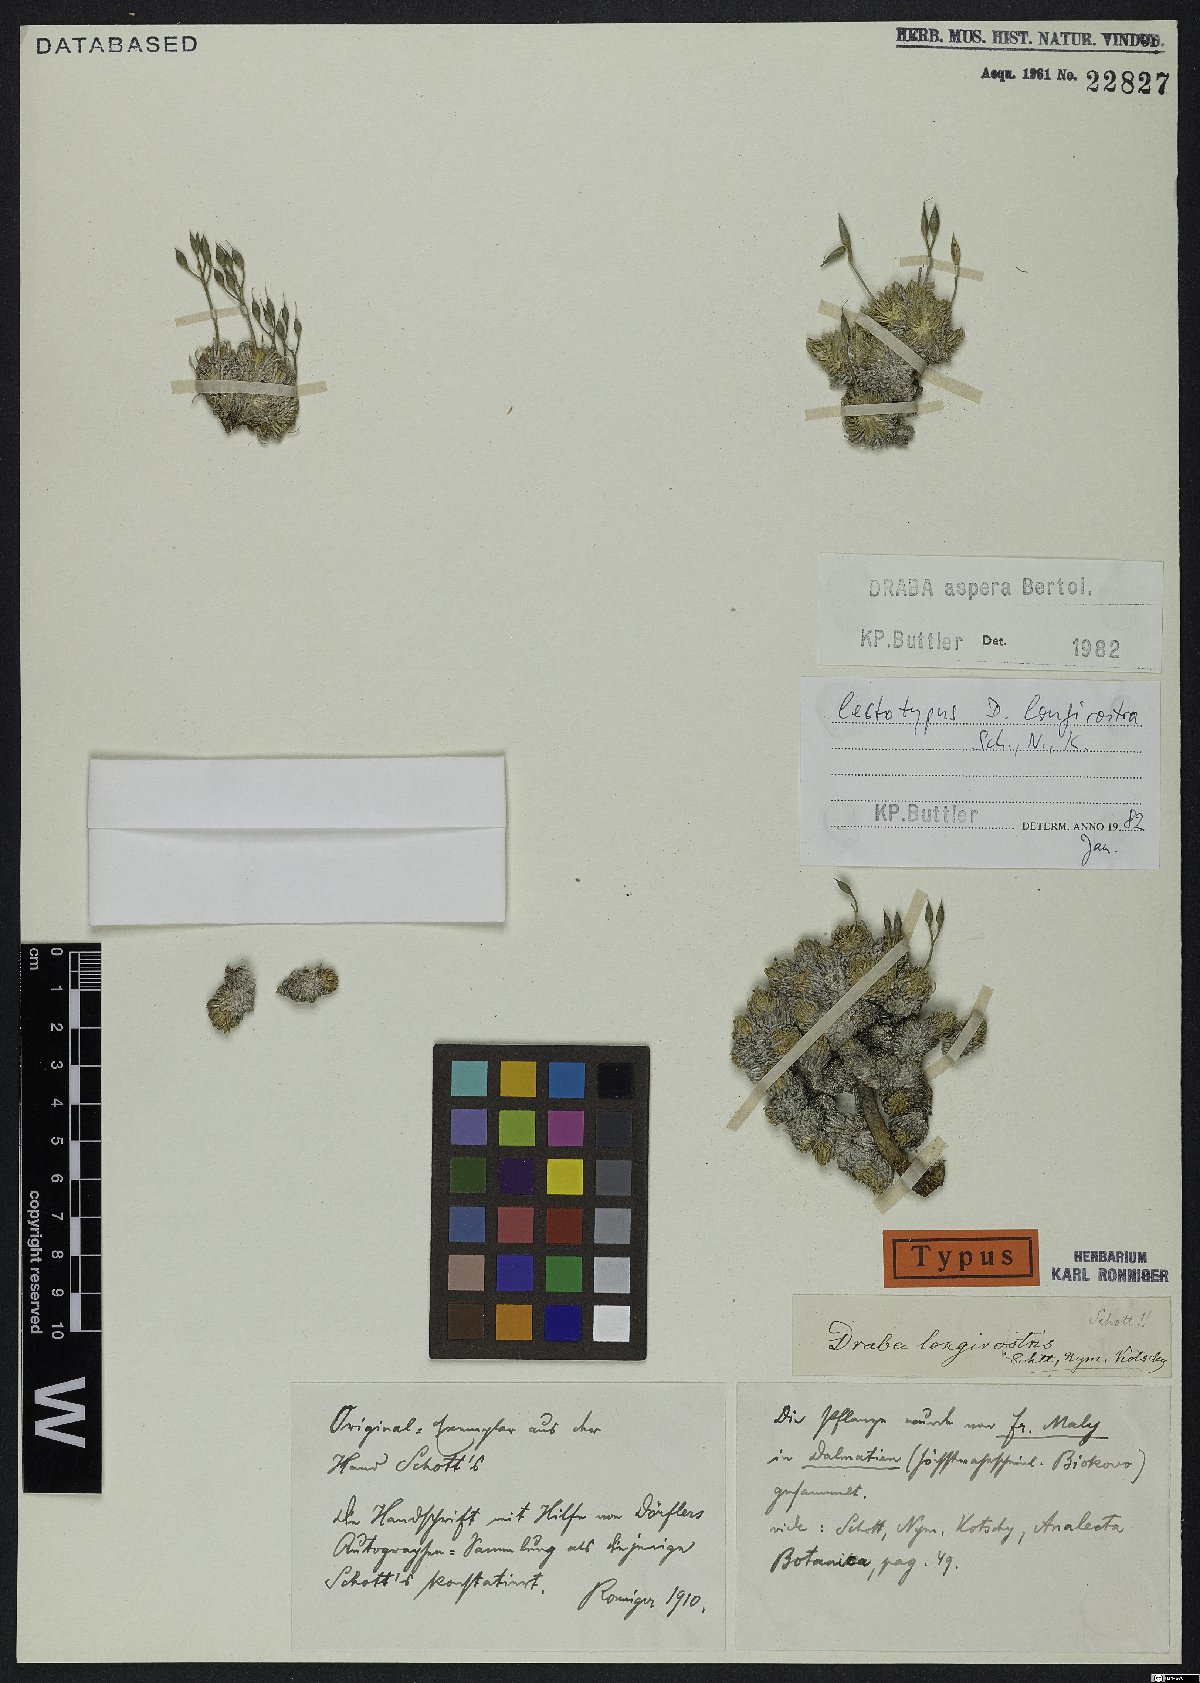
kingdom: Plantae
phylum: Tracheophyta
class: Magnoliopsida
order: Brassicales
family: Brassicaceae
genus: Draba
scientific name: Draba aspera
